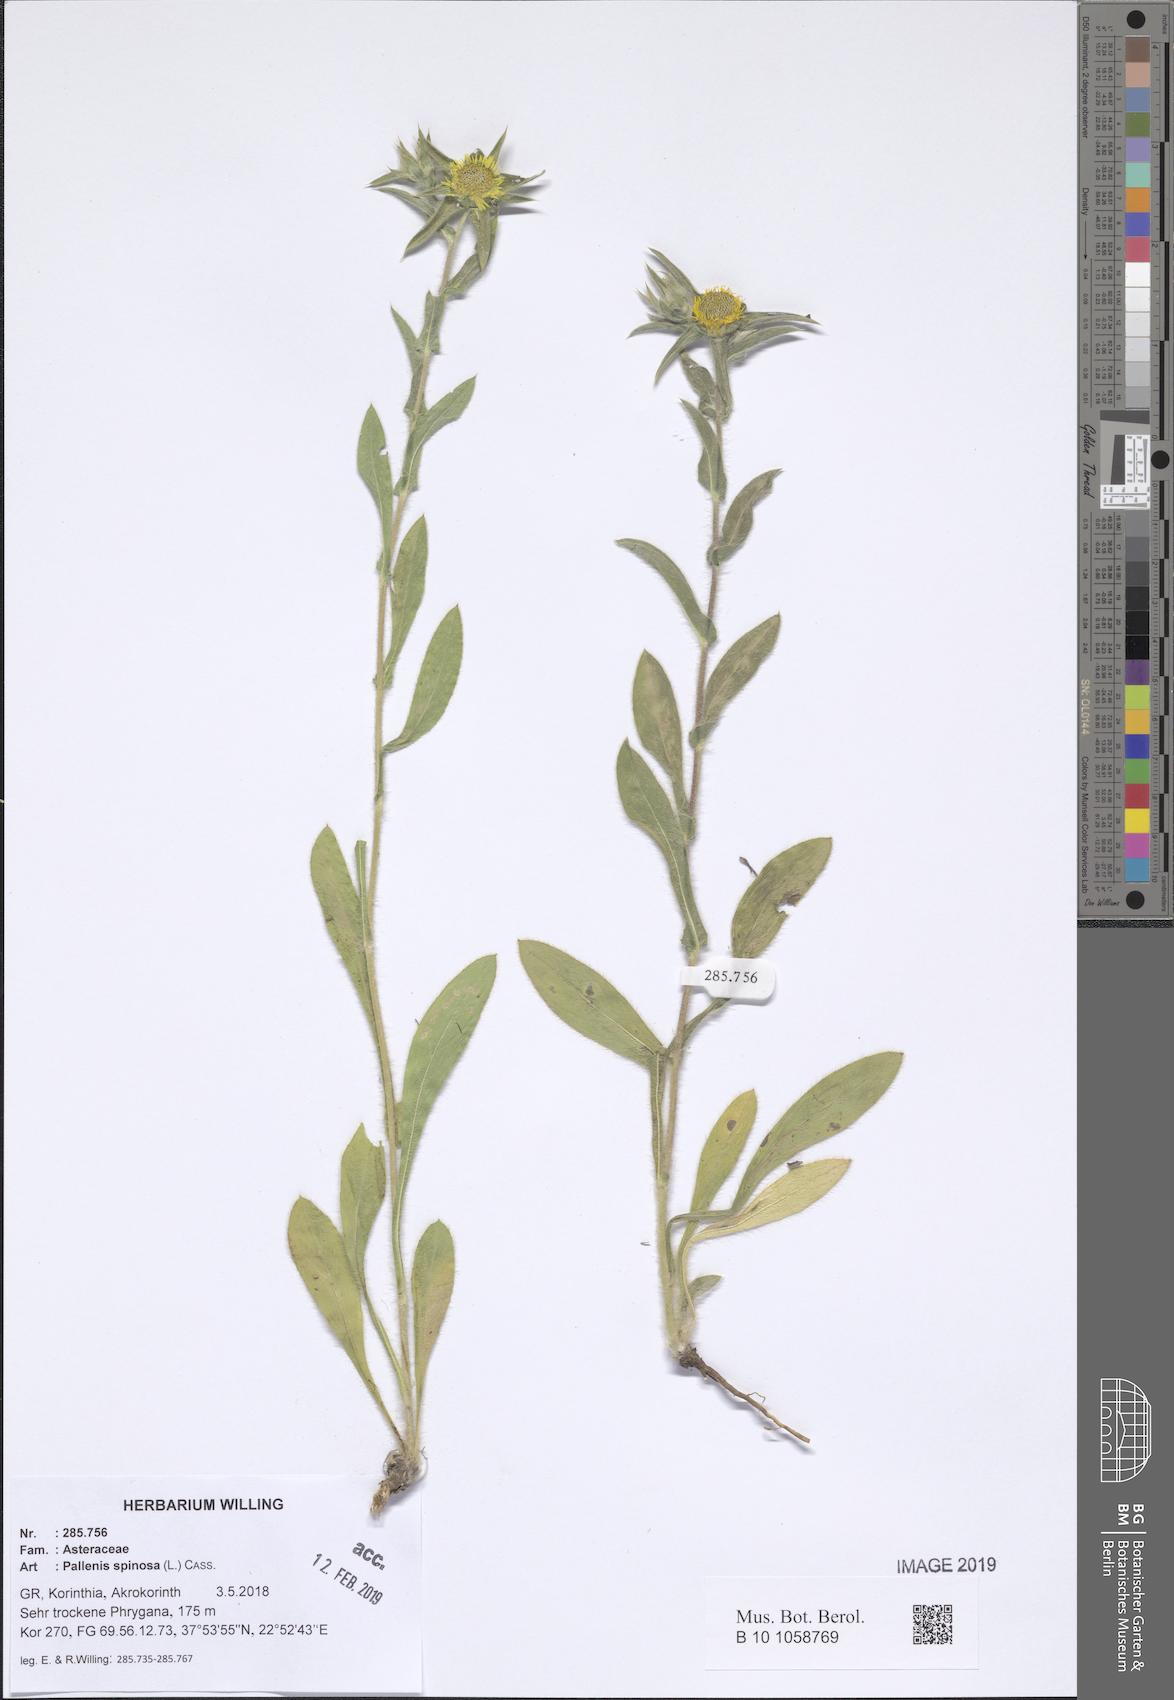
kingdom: Plantae
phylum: Tracheophyta
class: Magnoliopsida
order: Asterales
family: Asteraceae
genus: Pallenis
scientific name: Pallenis spinosa
